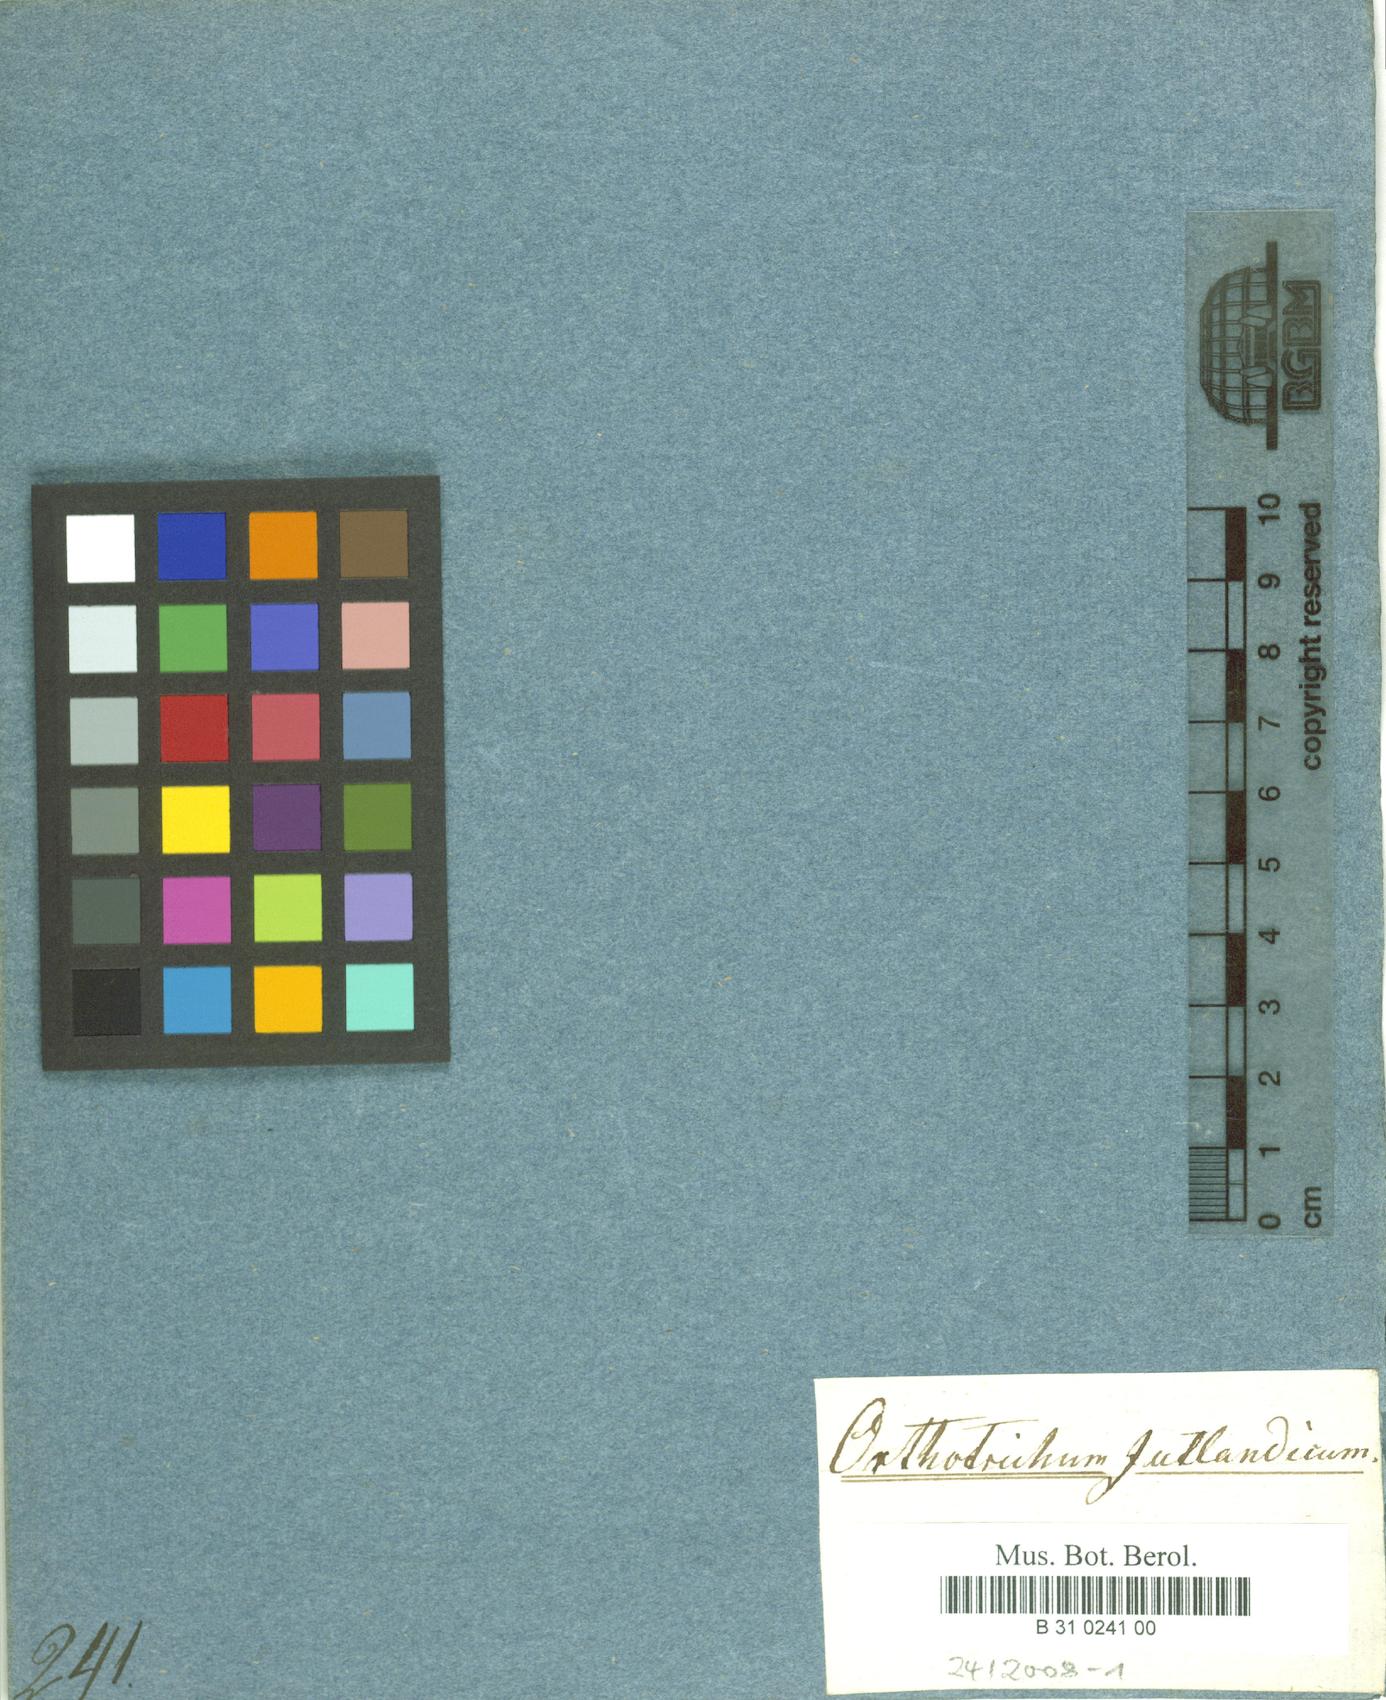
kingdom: Plantae
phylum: Bryophyta
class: Bryopsida
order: Orthotrichales
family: Orthotrichaceae
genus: Plenogemma
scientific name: Plenogemma phyllantha
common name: Frizzled pincushion
